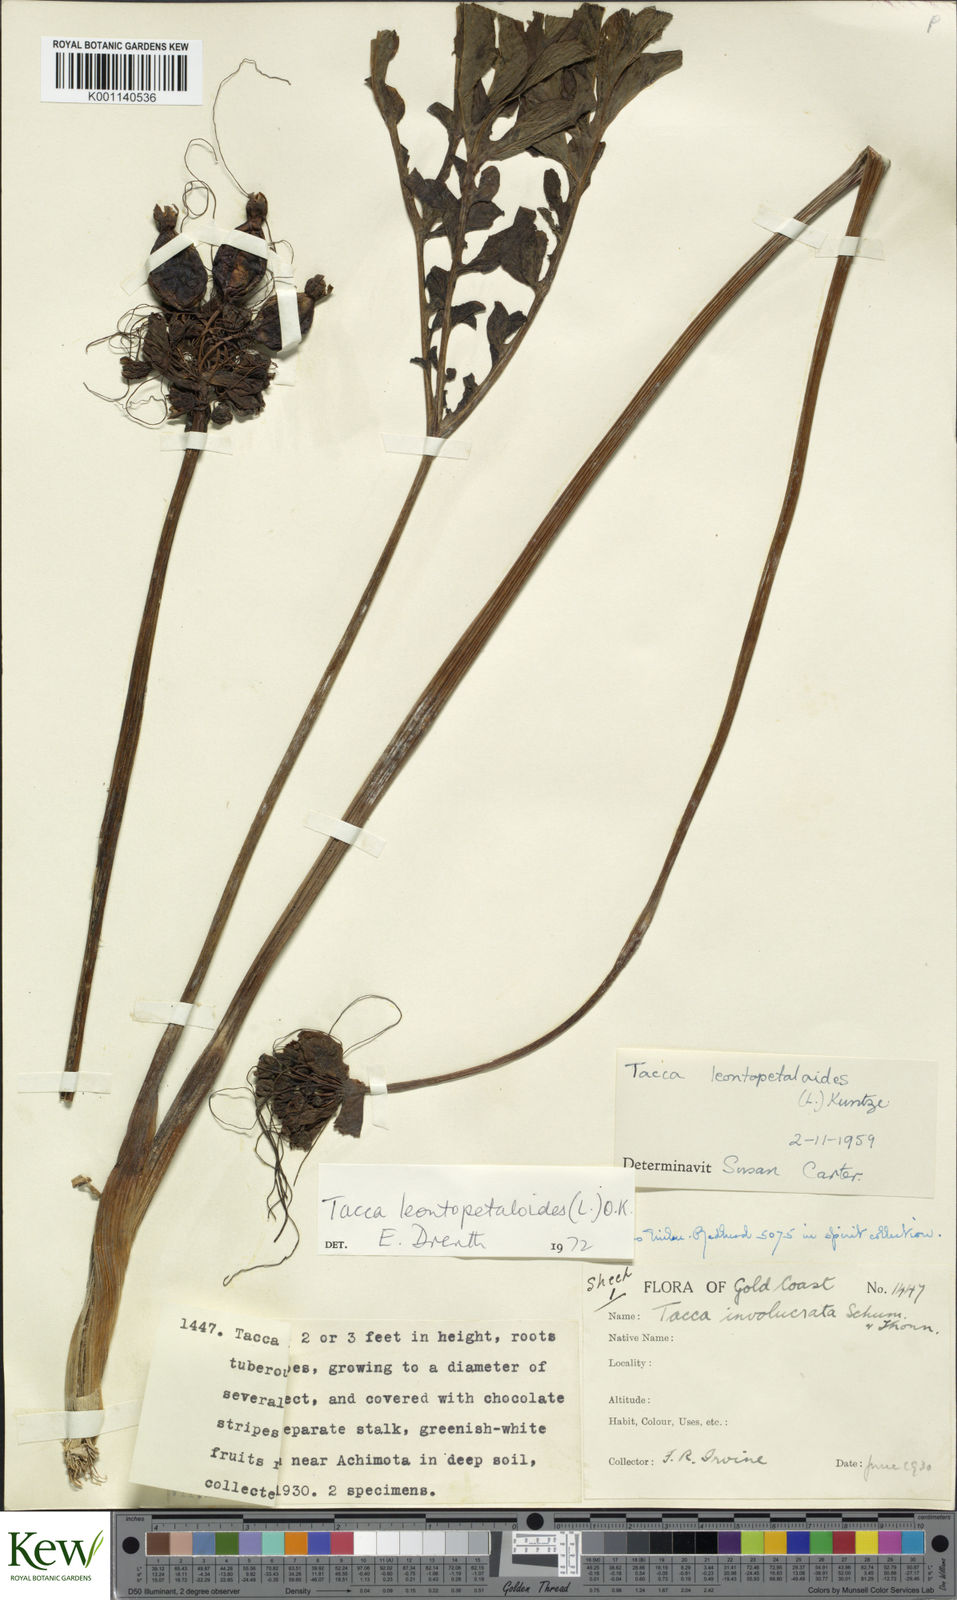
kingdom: Plantae
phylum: Tracheophyta
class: Liliopsida
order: Dioscoreales
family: Dioscoreaceae
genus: Tacca
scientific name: Tacca leontopetaloides
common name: Arrowroot
